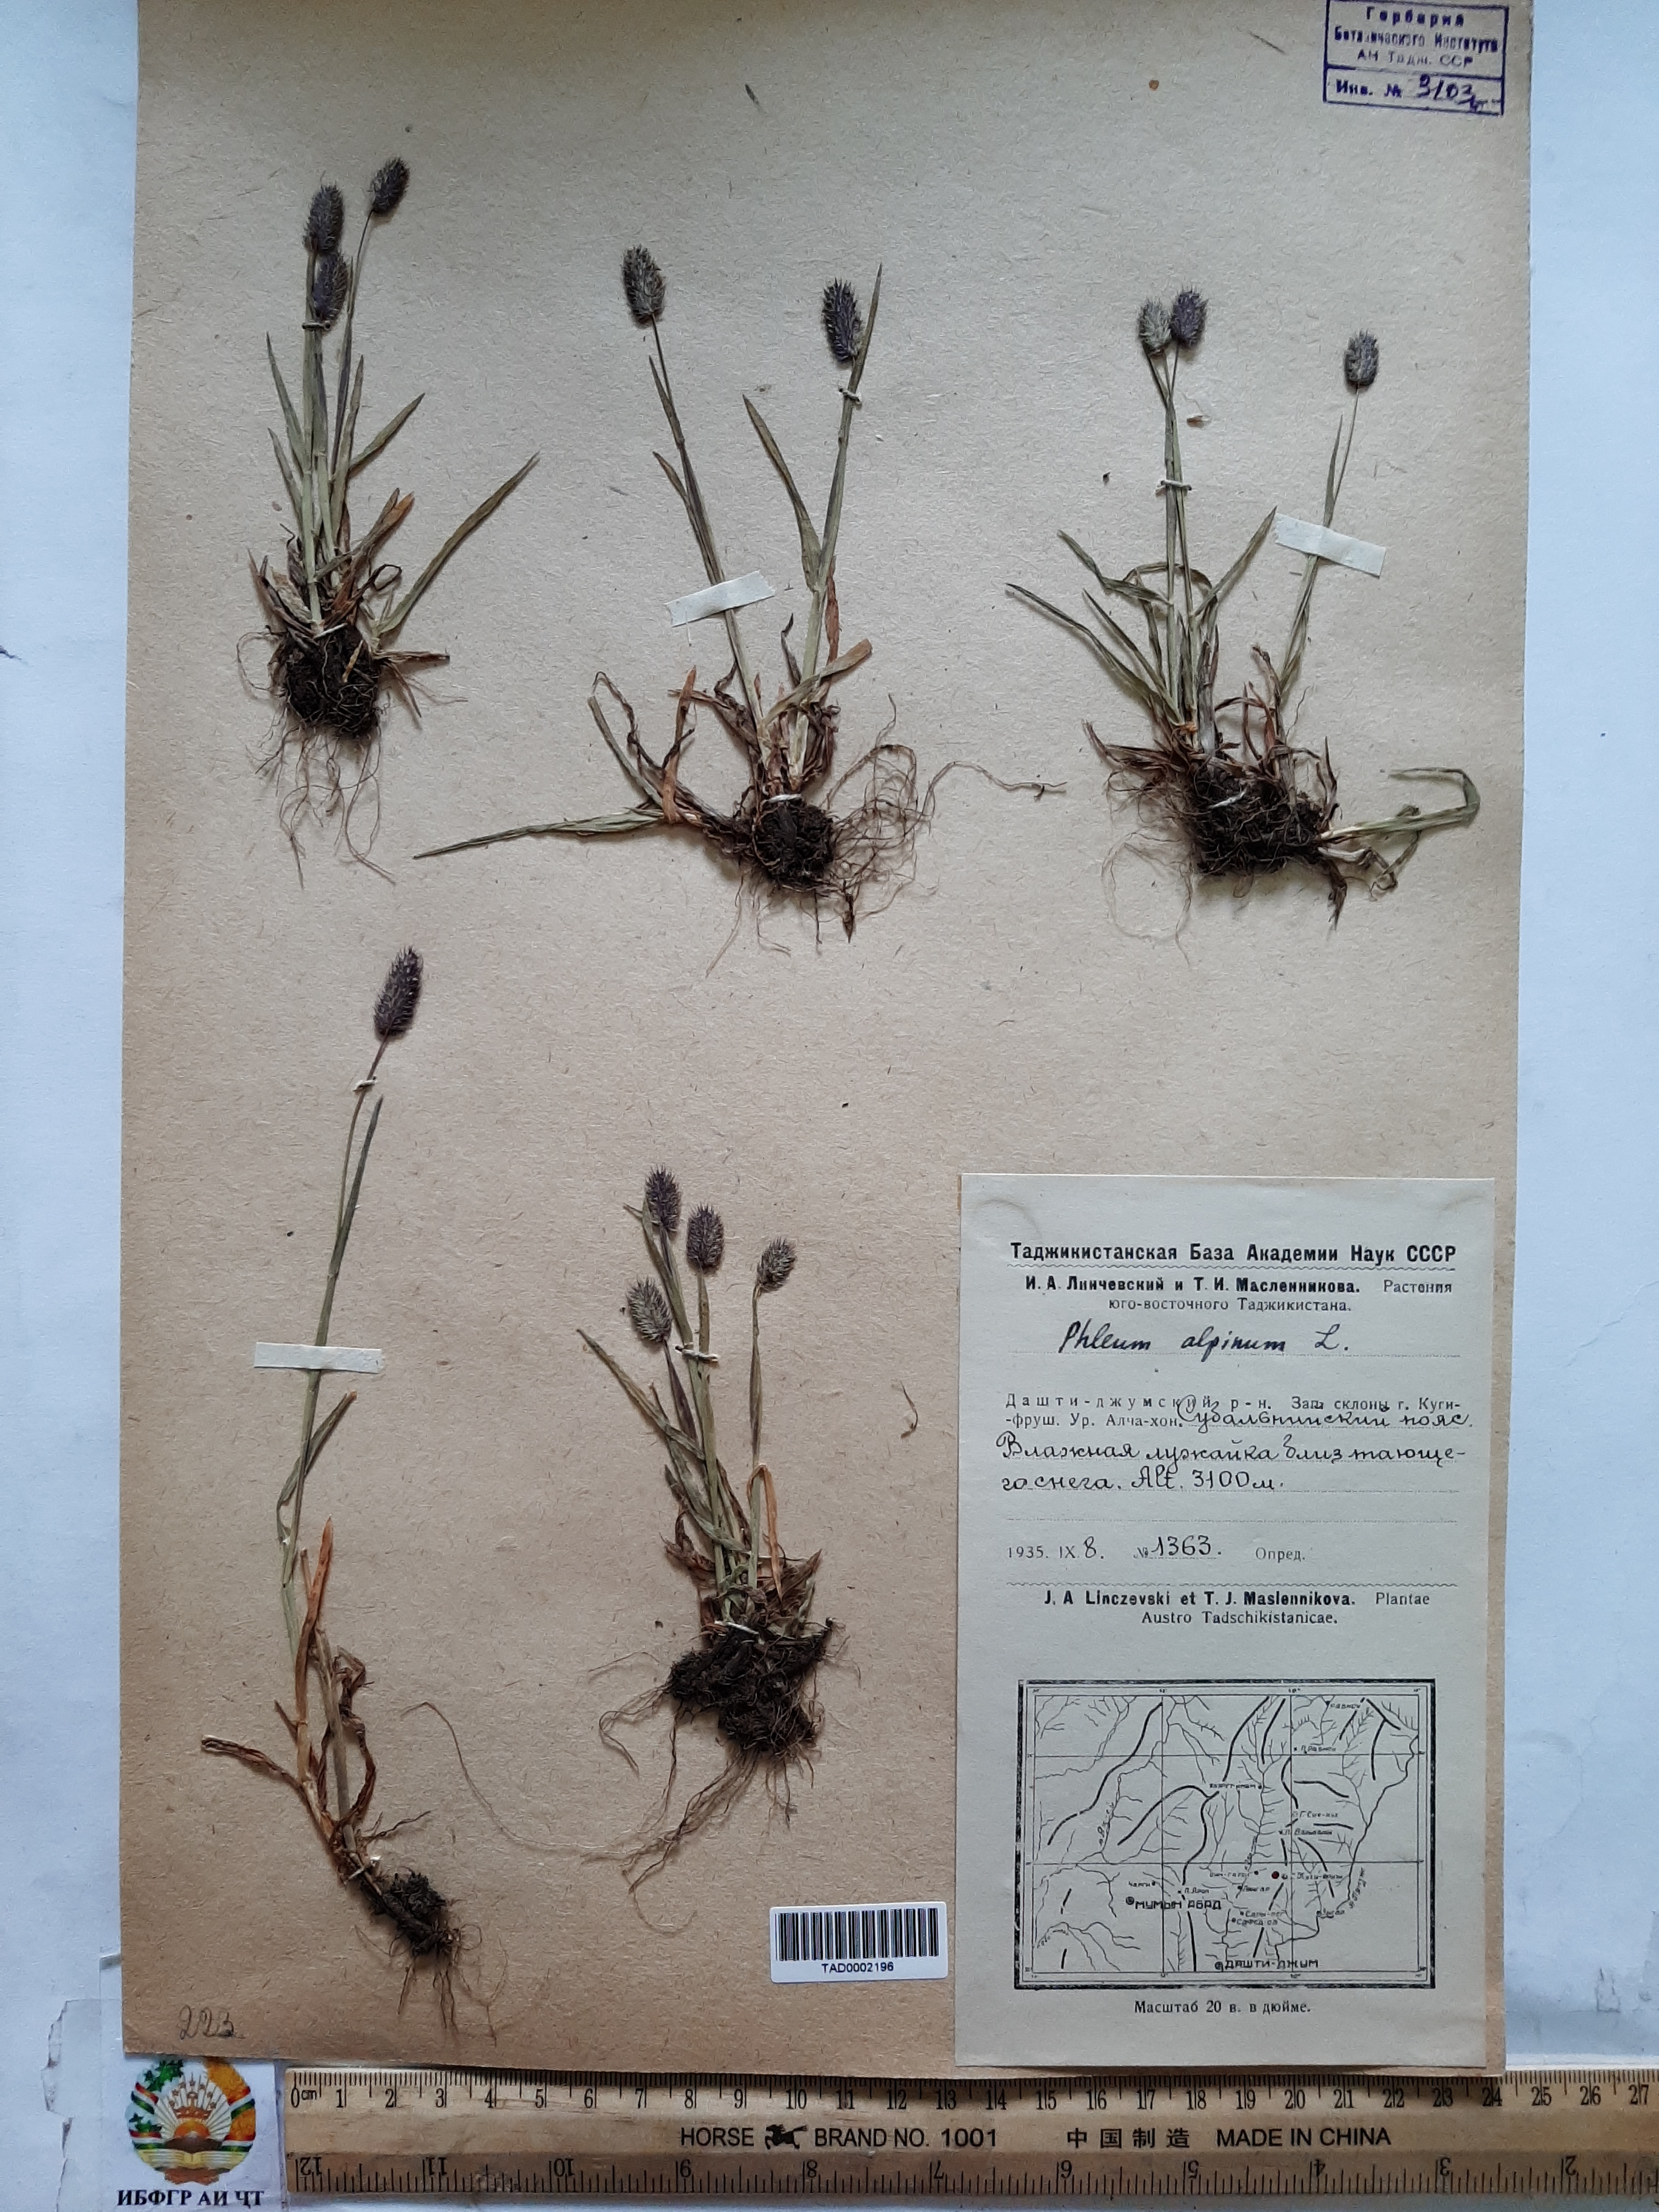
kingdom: Plantae
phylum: Tracheophyta
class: Liliopsida
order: Poales
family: Poaceae
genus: Phleum
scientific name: Phleum alpinum
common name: Alpine cat's-tail
